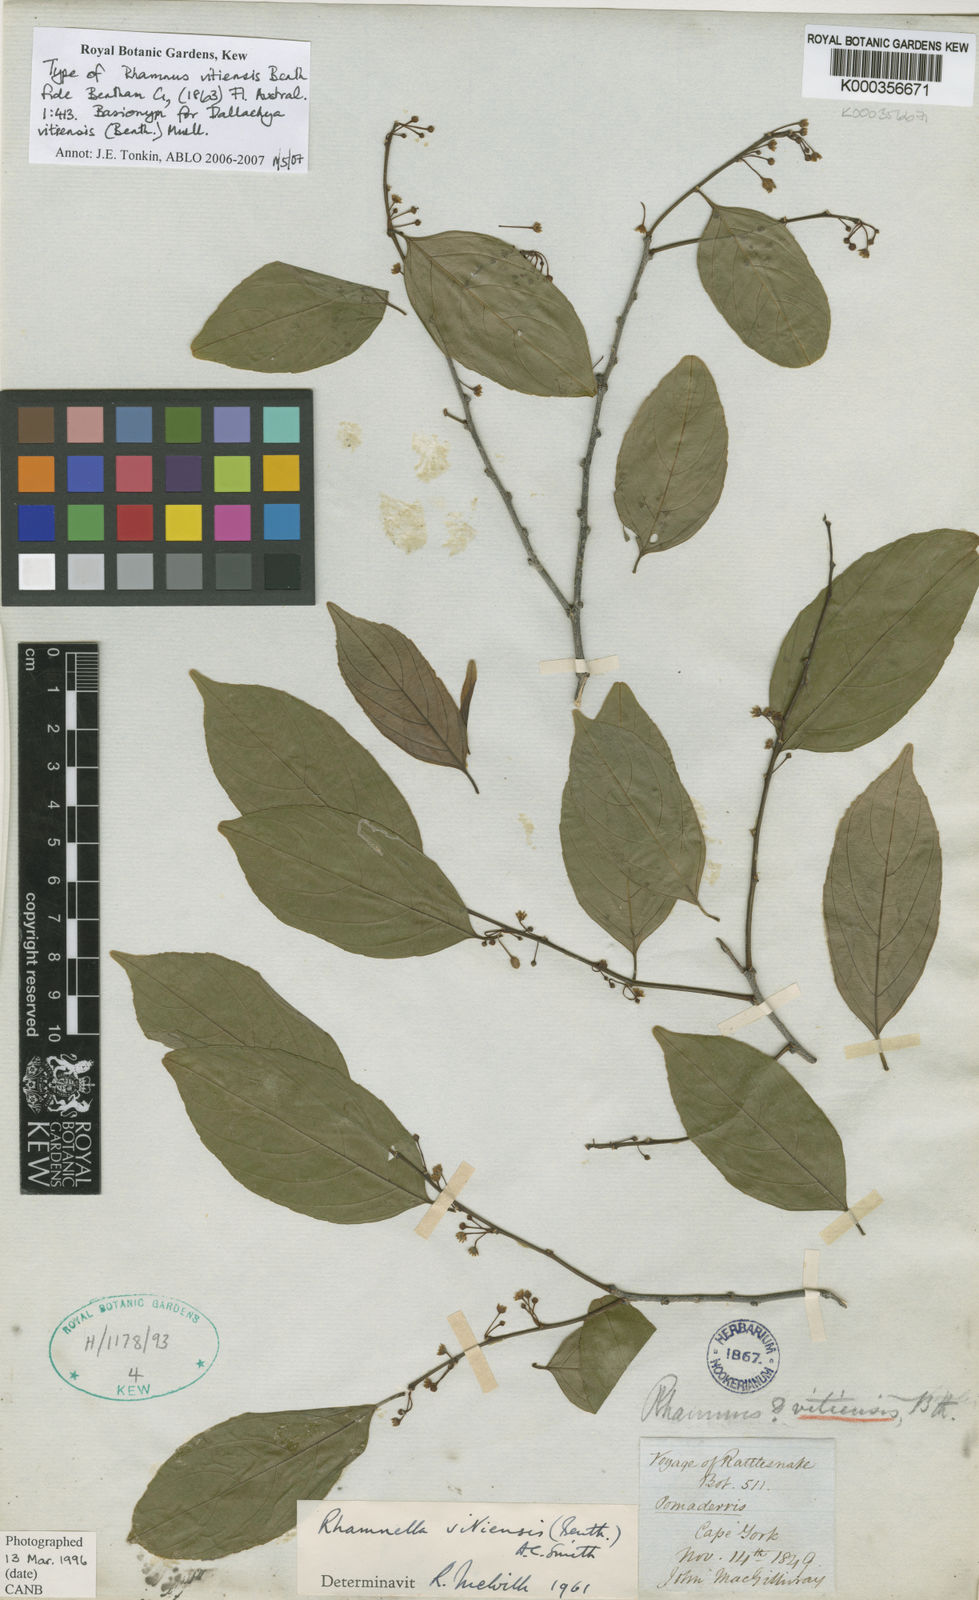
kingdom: Plantae
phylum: Tracheophyta
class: Magnoliopsida
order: Rosales
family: Rhamnaceae
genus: Dallachya
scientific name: Dallachya vitiensis
